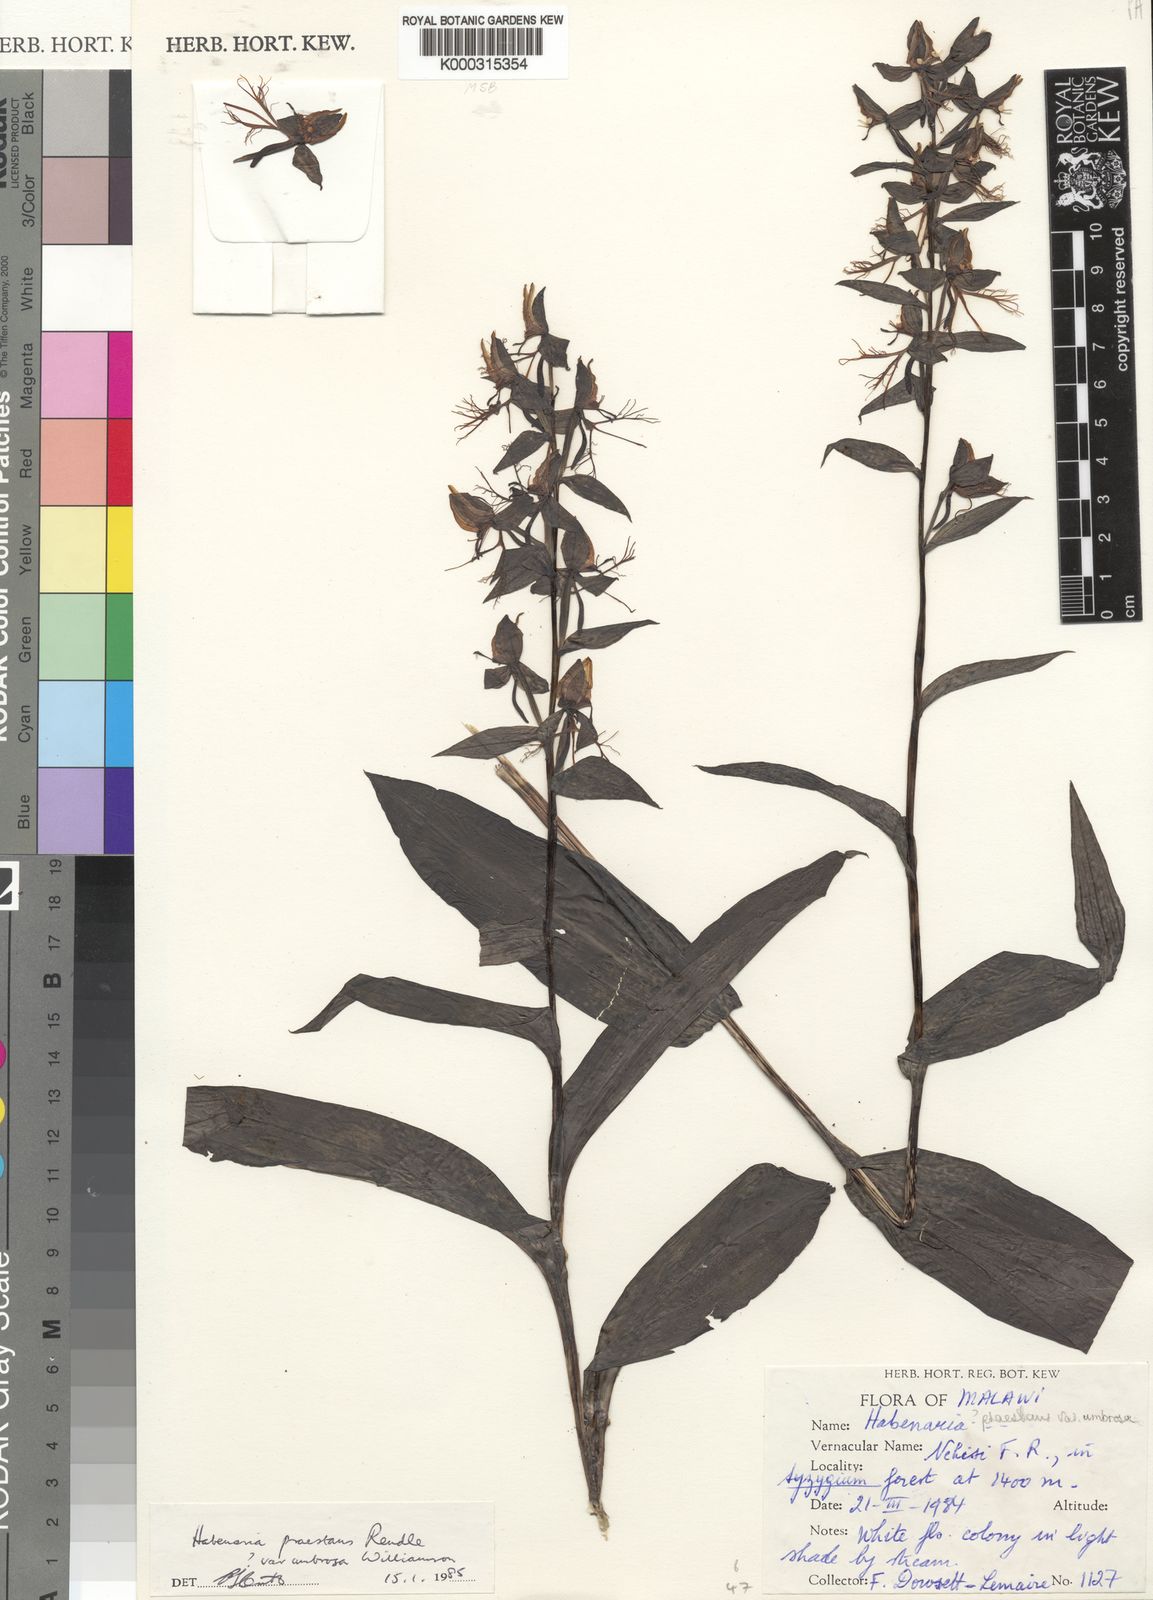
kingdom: Plantae
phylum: Tracheophyta
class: Liliopsida
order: Asparagales
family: Orchidaceae
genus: Habenaria
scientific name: Habenaria praestans
